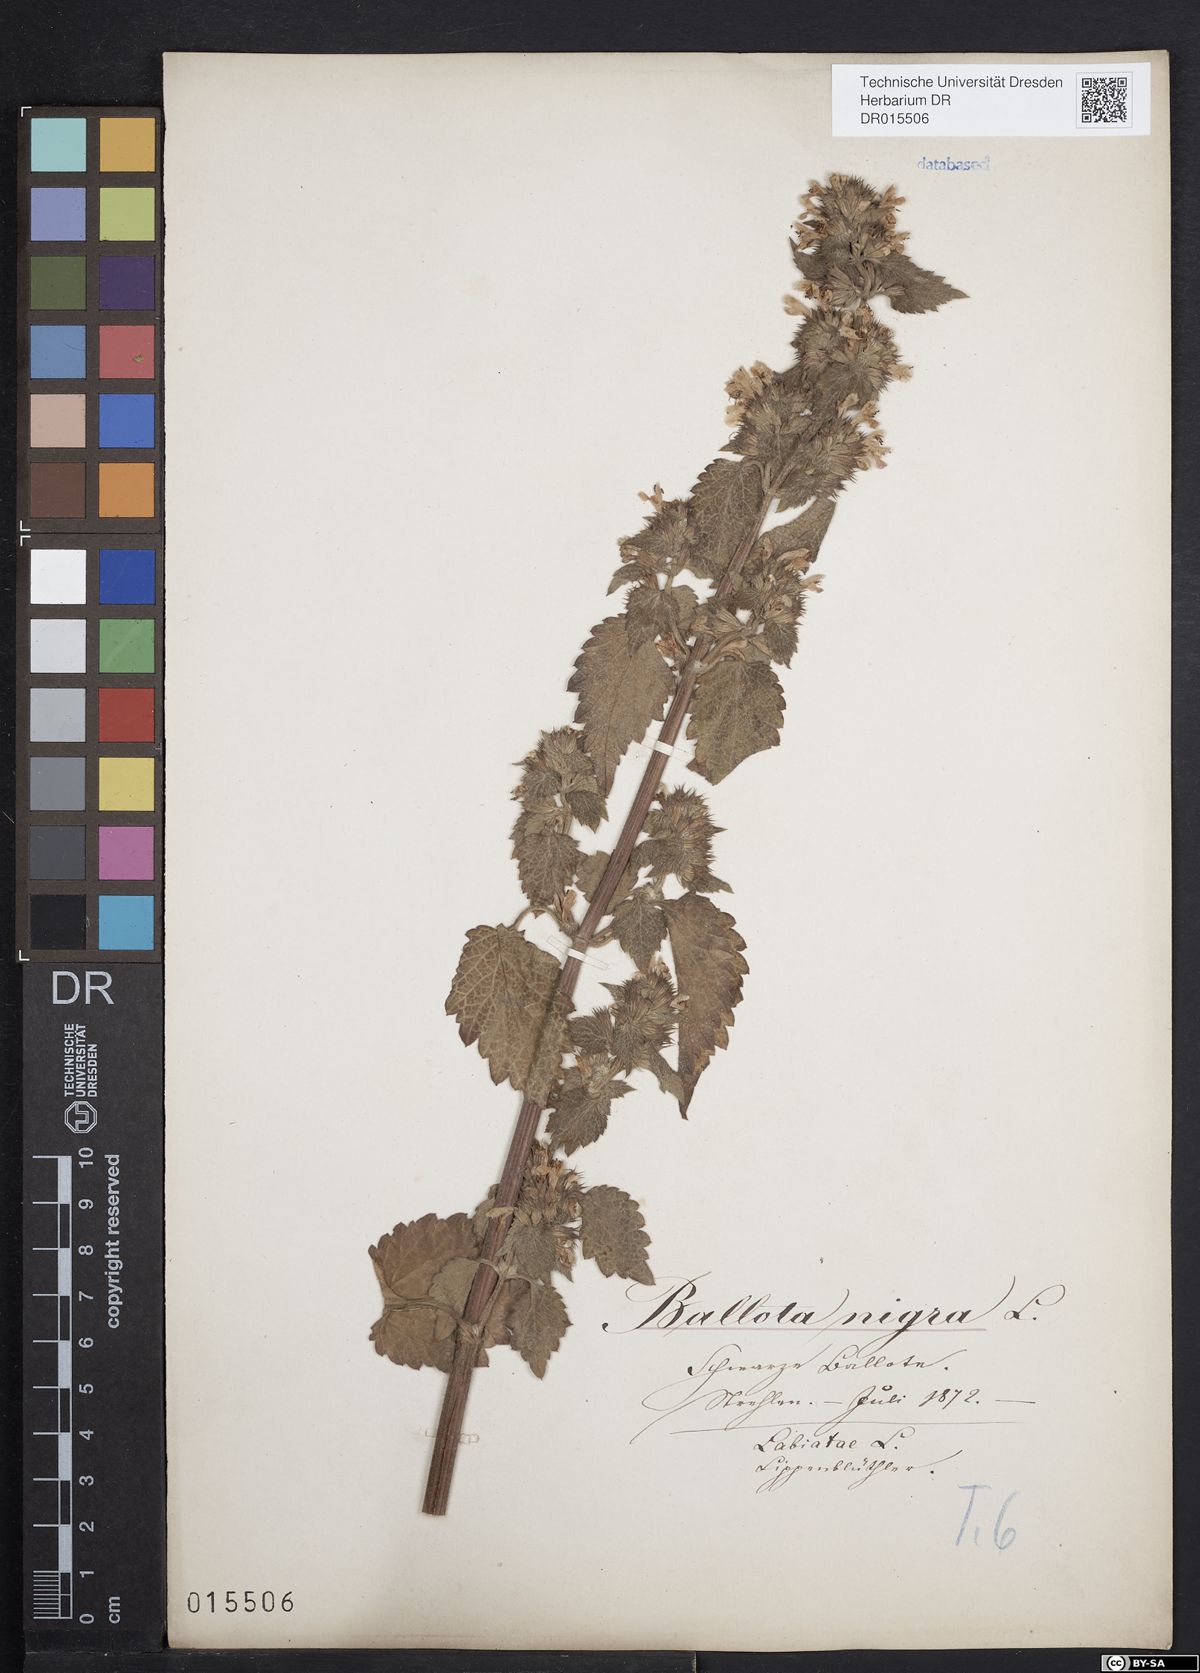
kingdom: Plantae
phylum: Tracheophyta
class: Magnoliopsida
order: Lamiales
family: Lamiaceae
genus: Ballota
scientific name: Ballota nigra
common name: Black horehound
